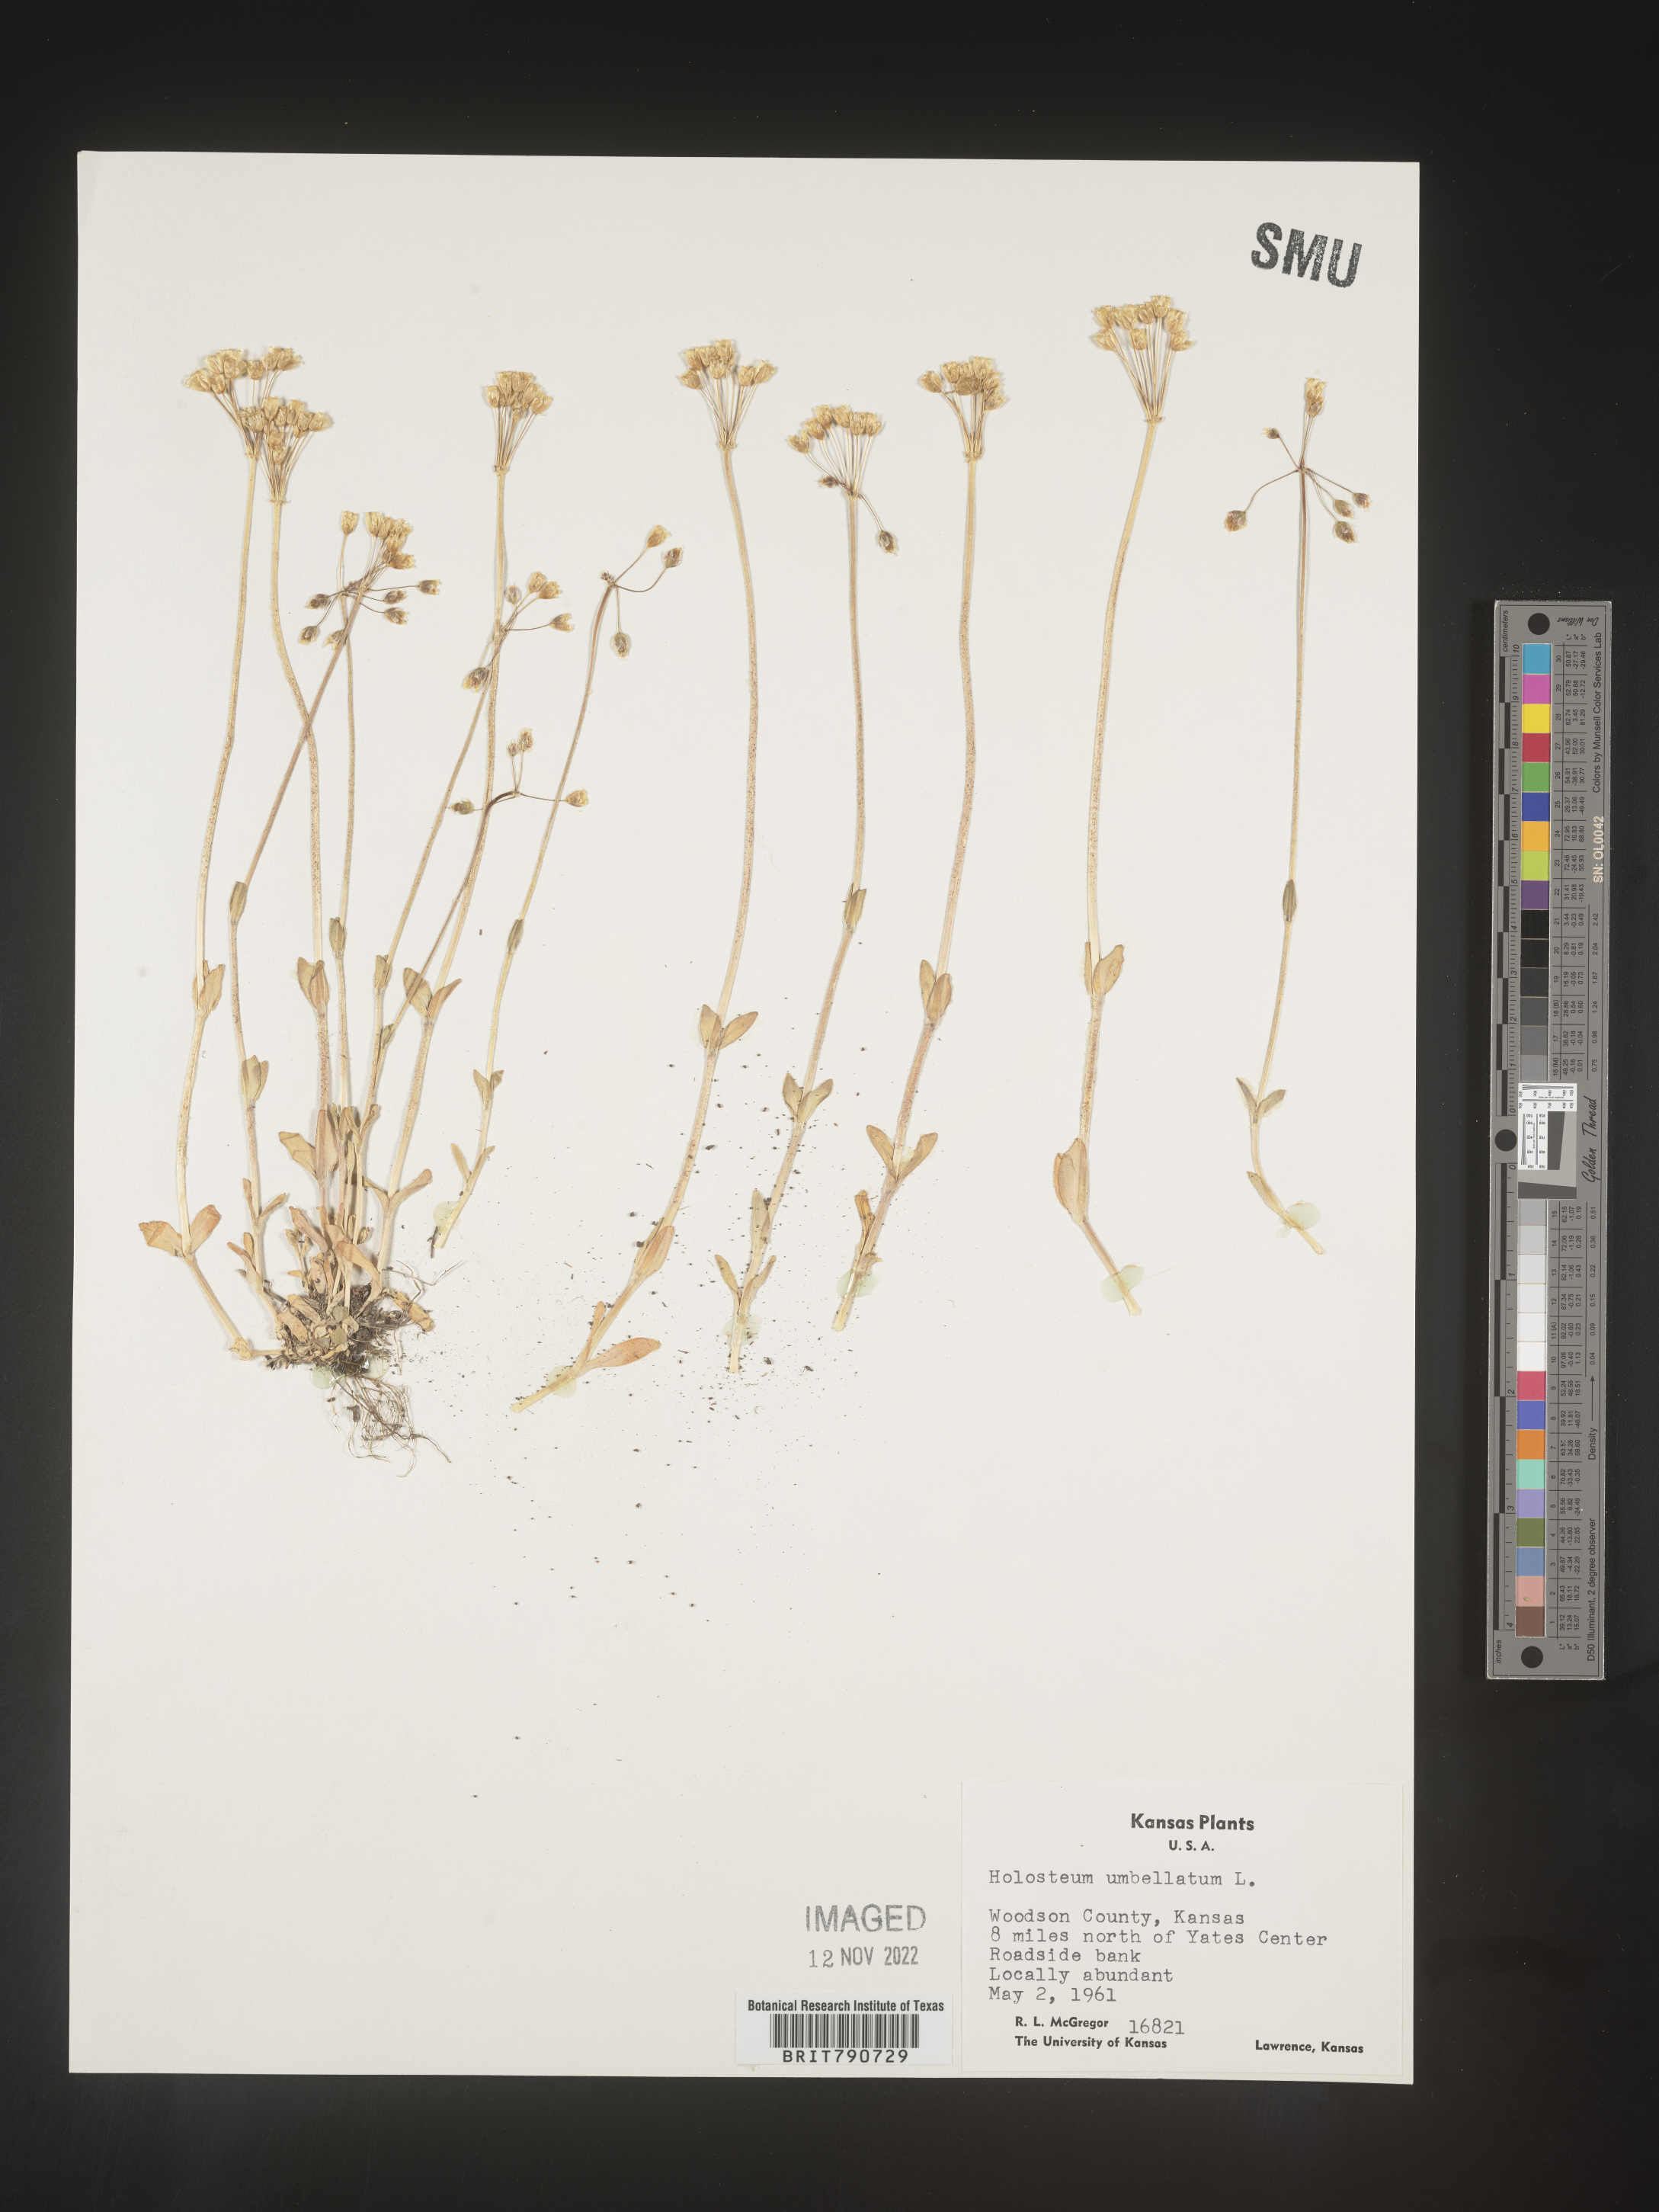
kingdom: Plantae
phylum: Tracheophyta
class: Magnoliopsida
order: Caryophyllales
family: Caryophyllaceae
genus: Holosteum
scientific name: Holosteum
